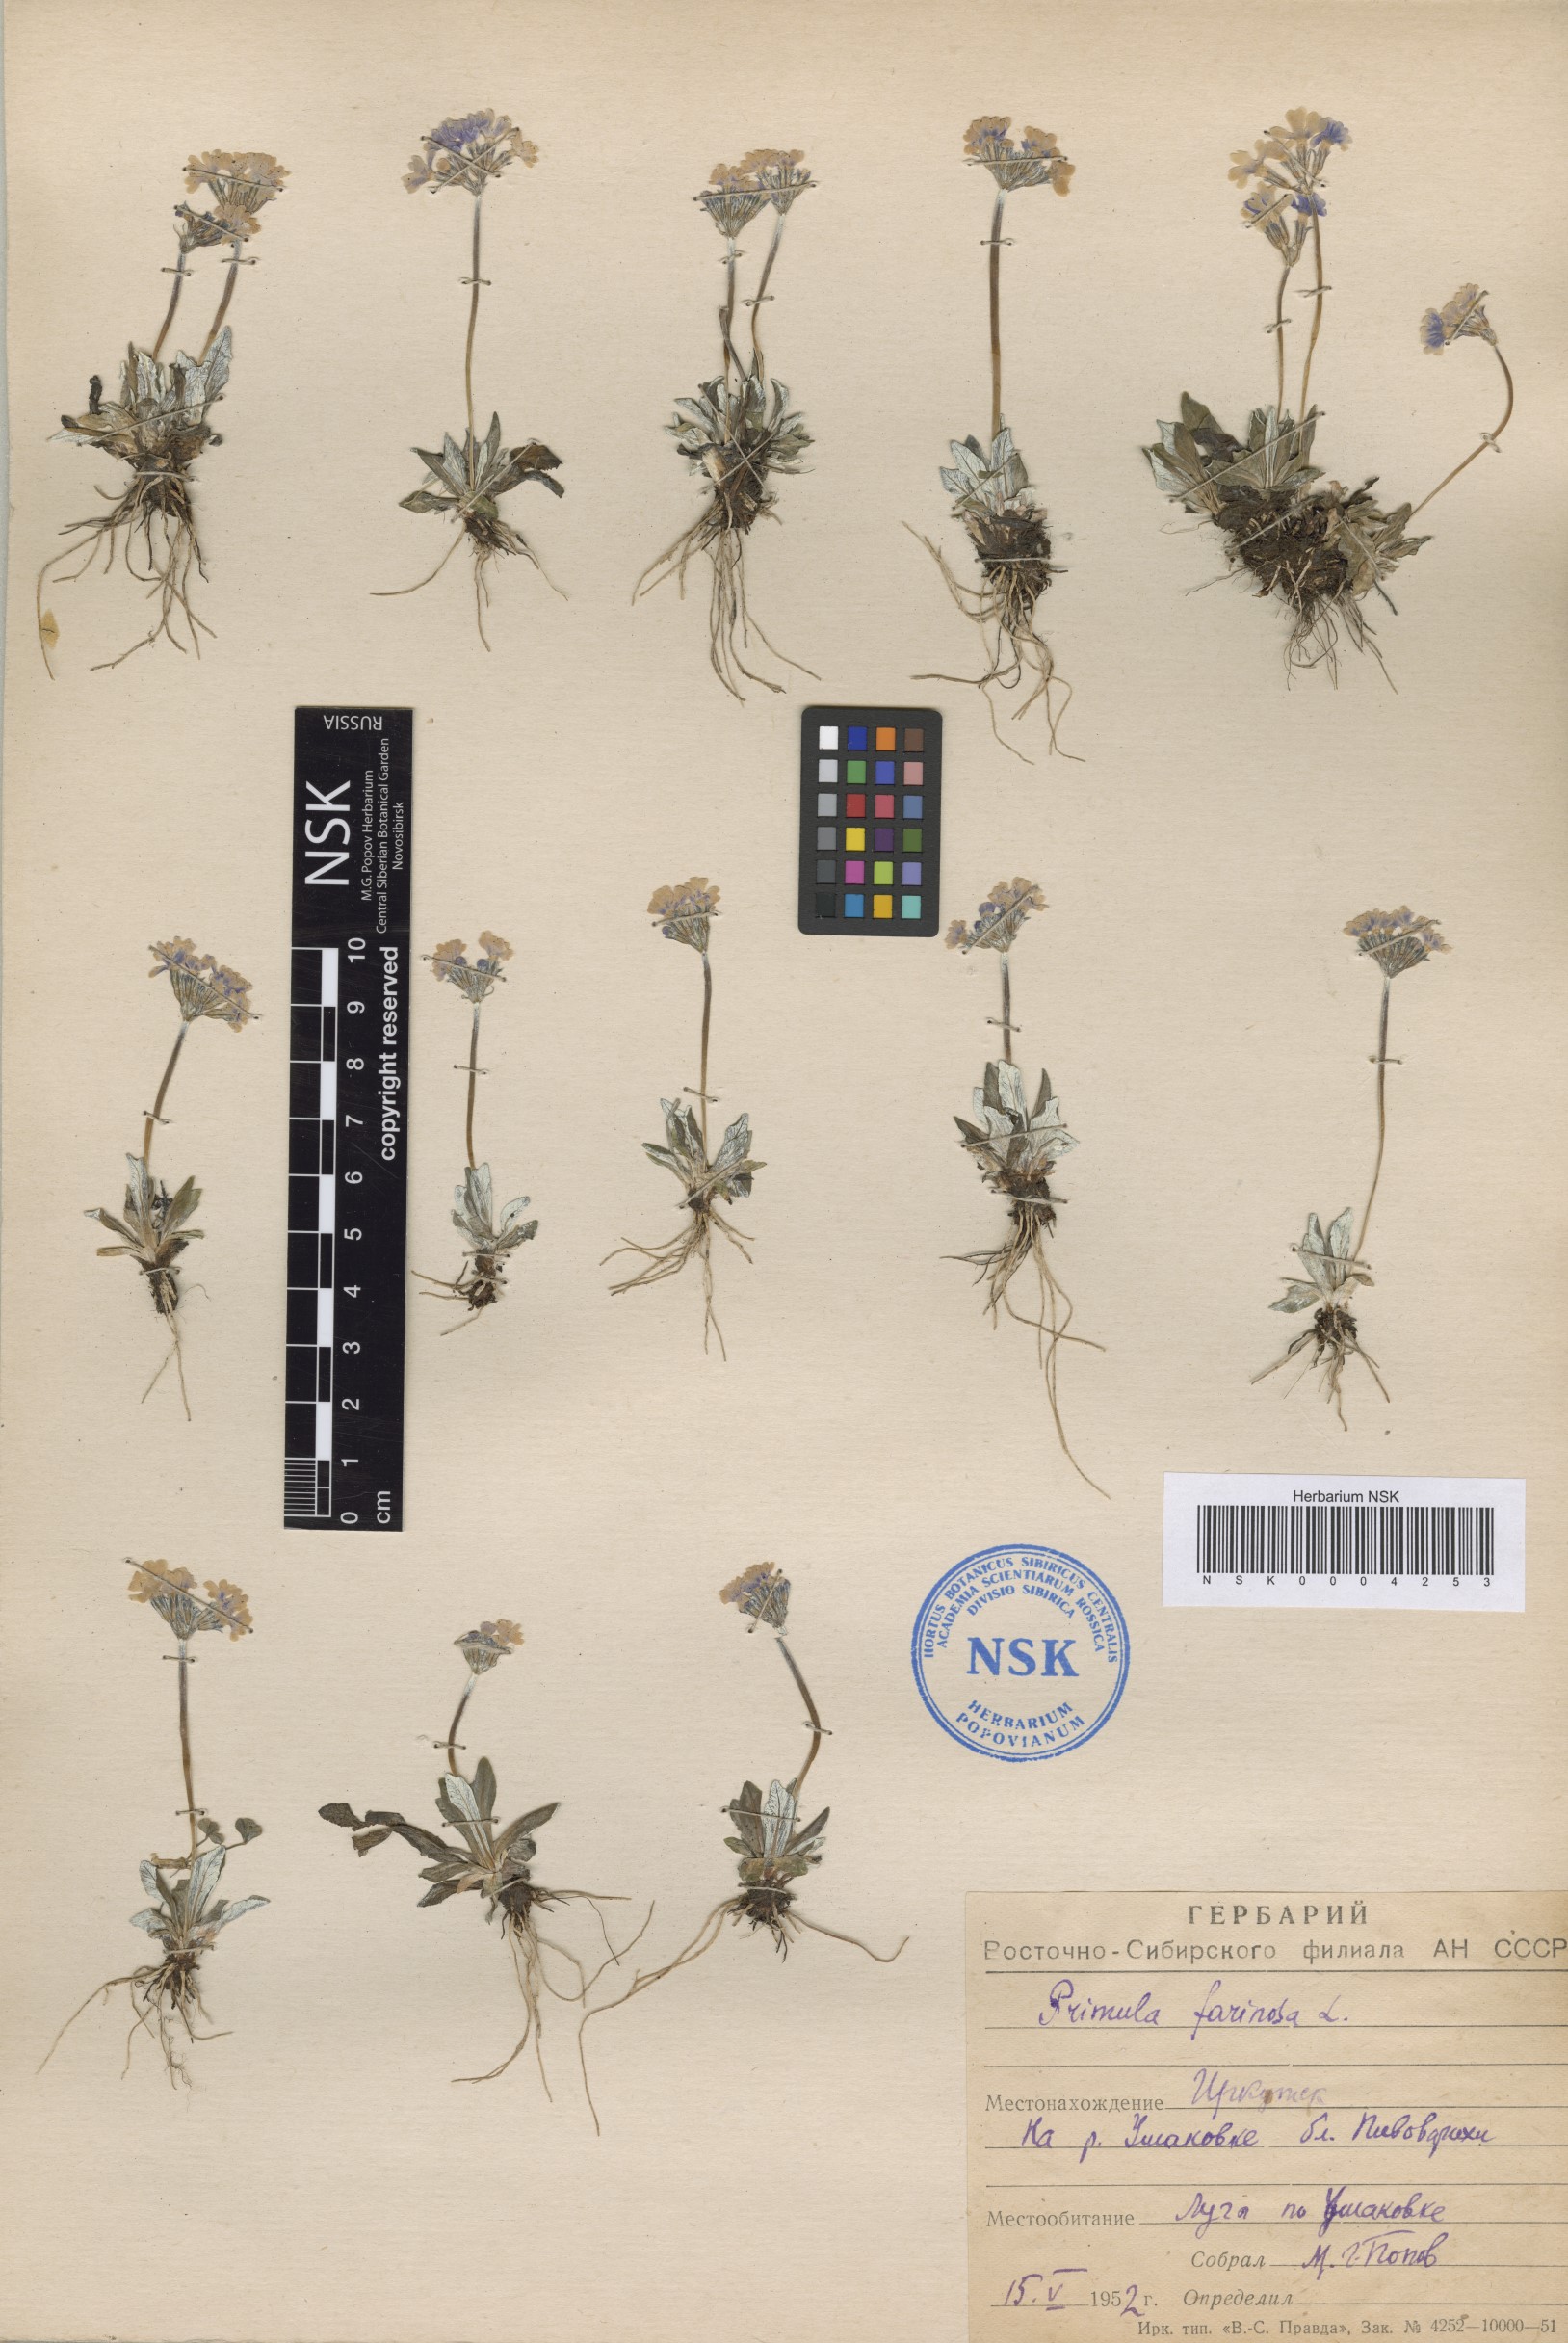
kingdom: Plantae
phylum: Tracheophyta
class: Magnoliopsida
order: Ericales
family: Primulaceae
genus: Primula
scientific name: Primula farinosa
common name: Bird's-eye primrose
